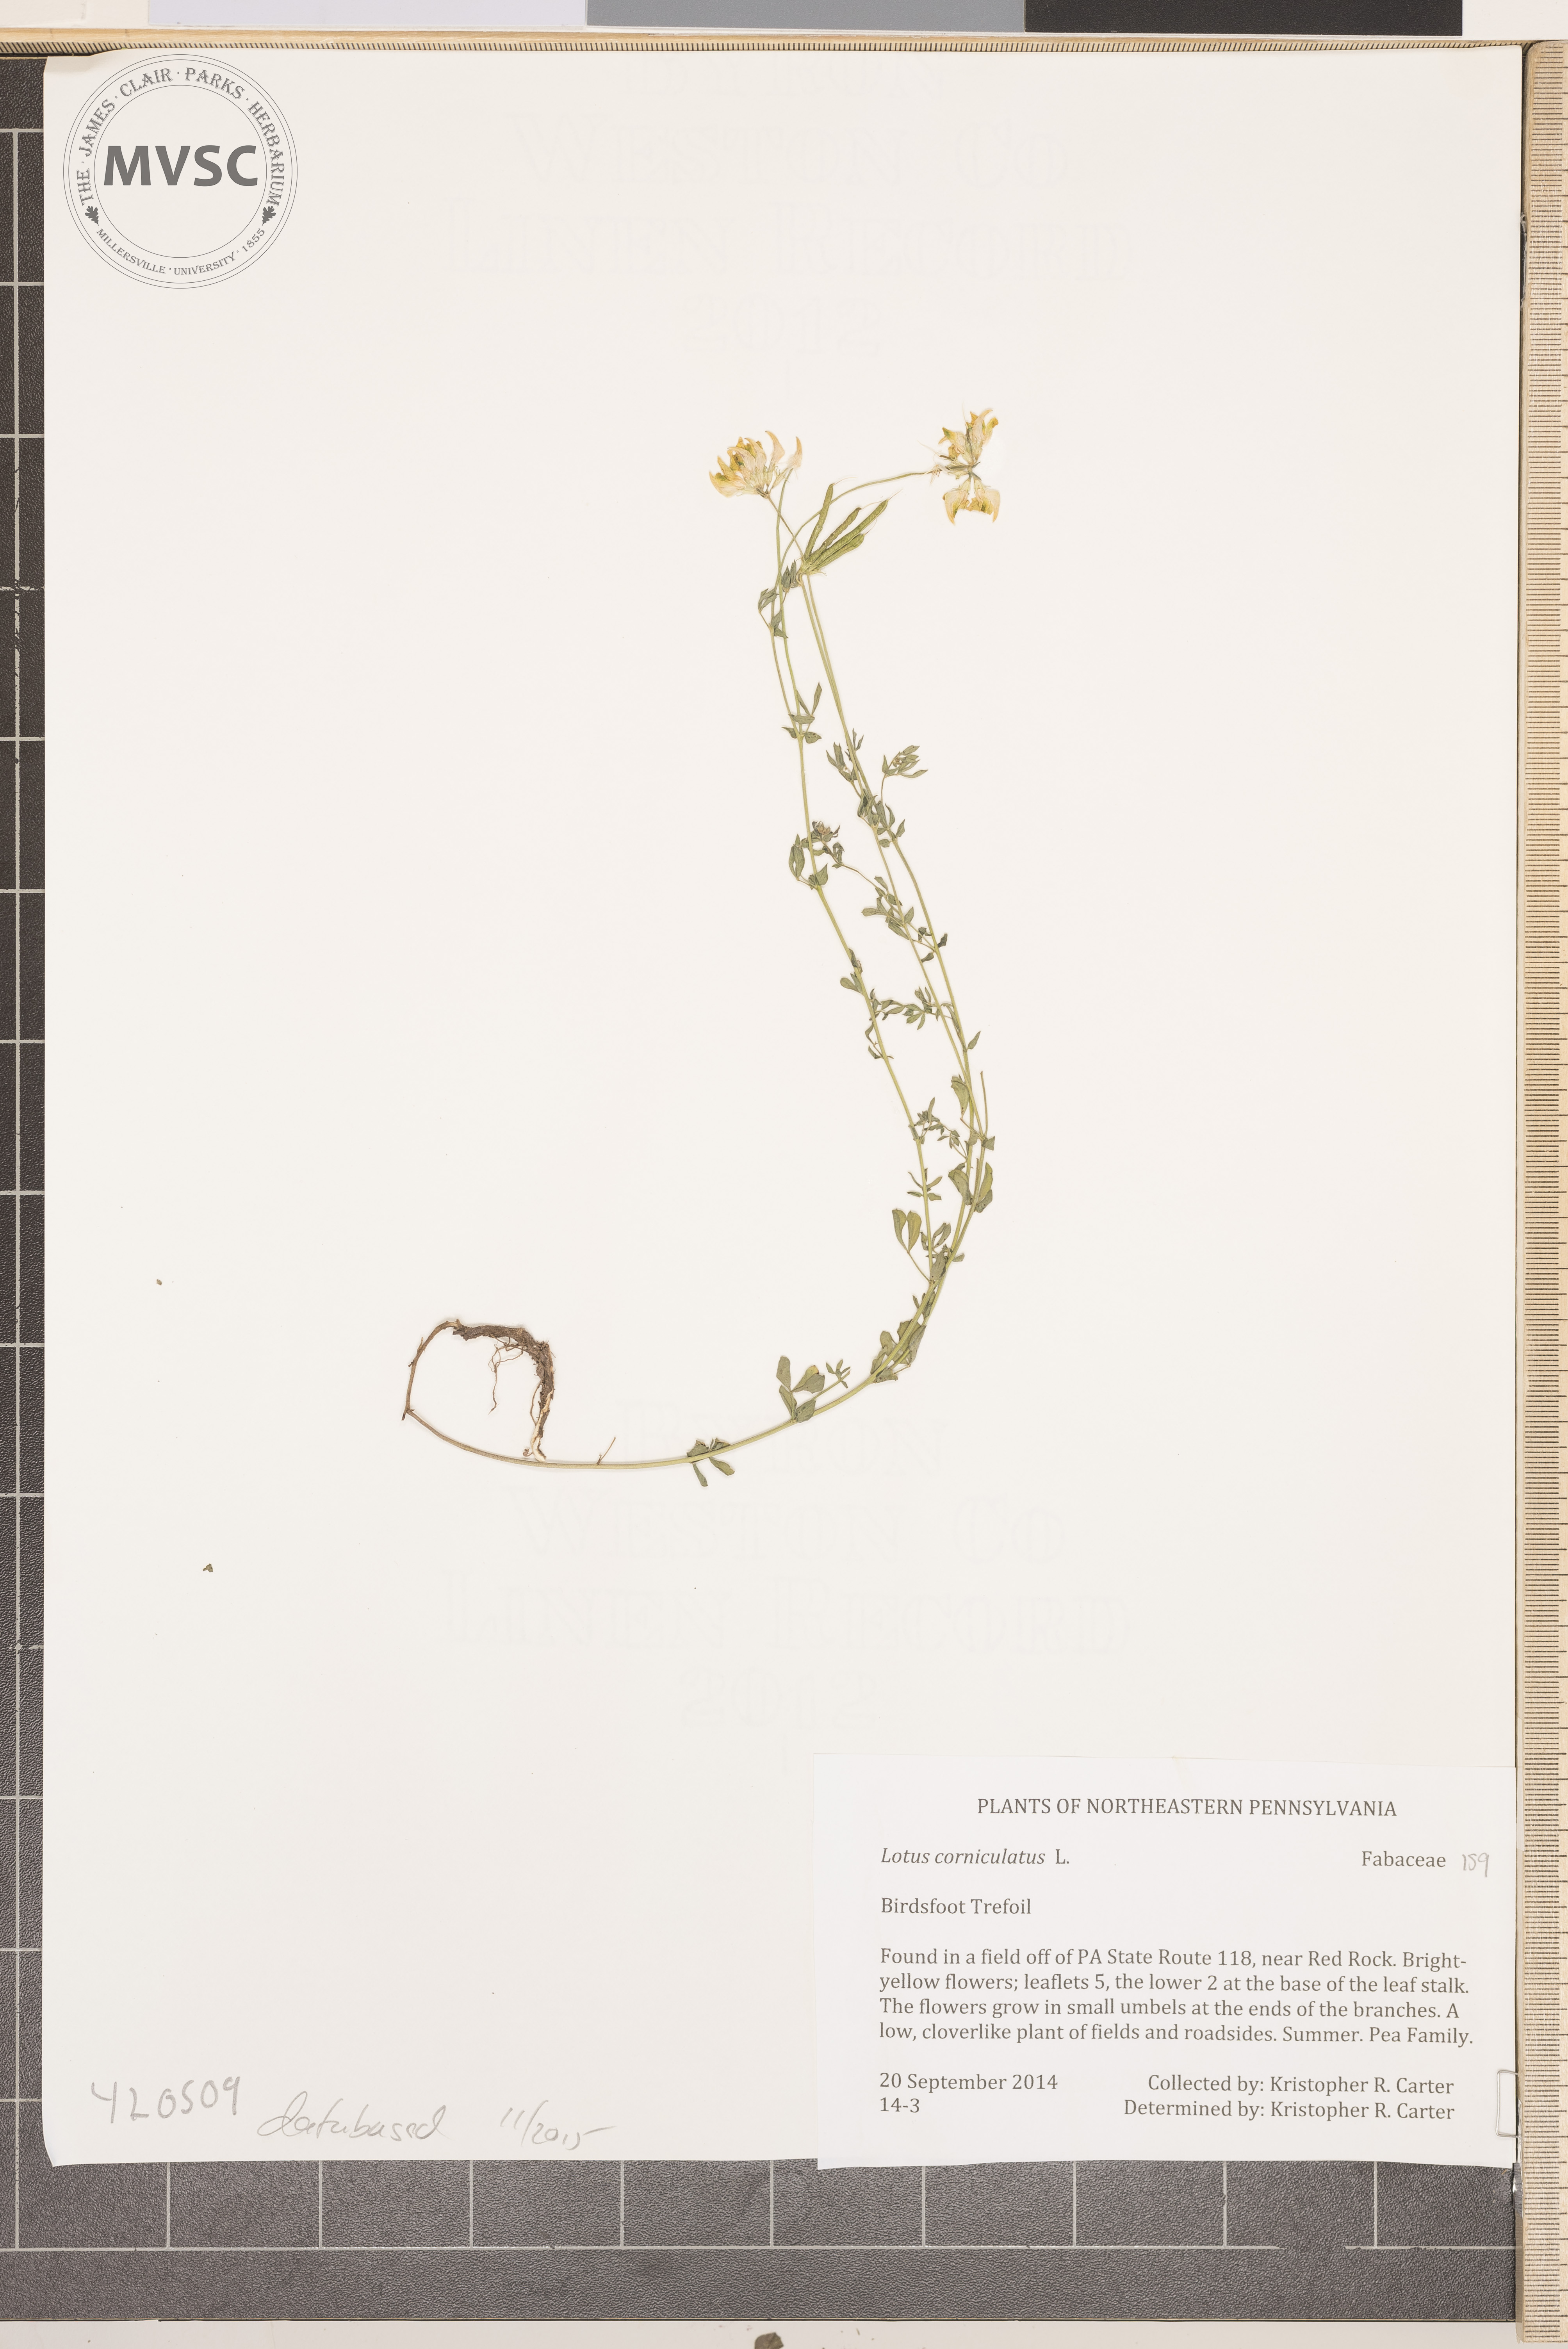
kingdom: Plantae
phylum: Tracheophyta
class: Magnoliopsida
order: Fabales
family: Fabaceae
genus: Lotus
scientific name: Lotus corniculatus
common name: Birdsfoot Trefoil
